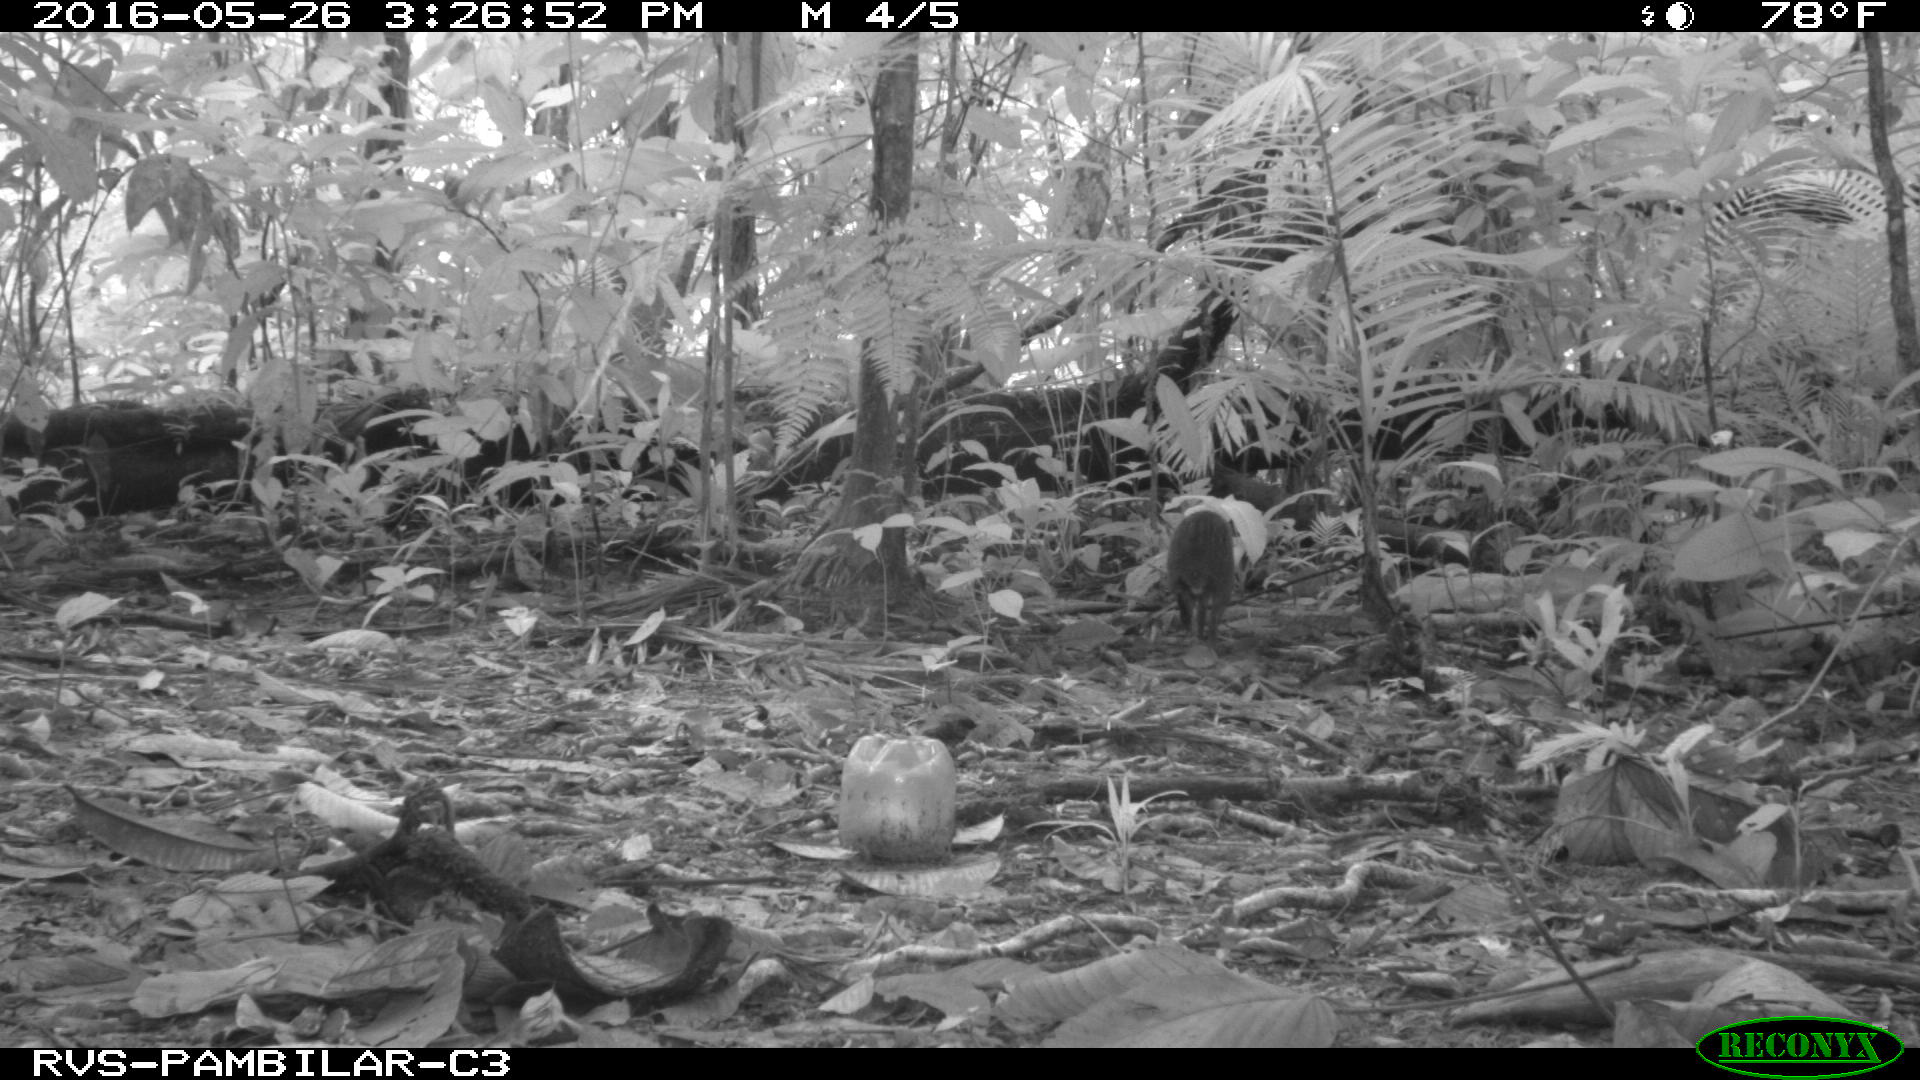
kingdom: Animalia
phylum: Chordata
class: Mammalia
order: Rodentia
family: Dasyproctidae
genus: Dasyprocta
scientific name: Dasyprocta punctata
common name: Central american agouti
